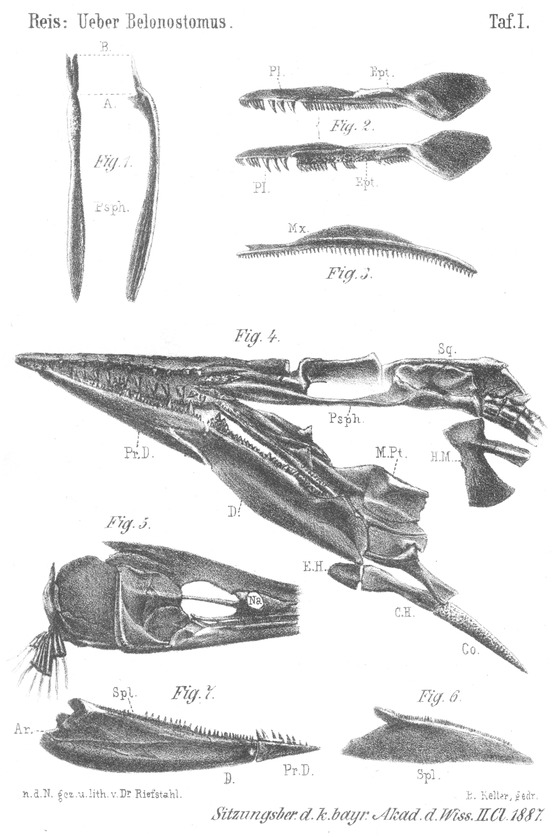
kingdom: Animalia
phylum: Chordata
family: Aspidorhynchidae
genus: Aspidorhynchus
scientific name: Aspidorhynchus
